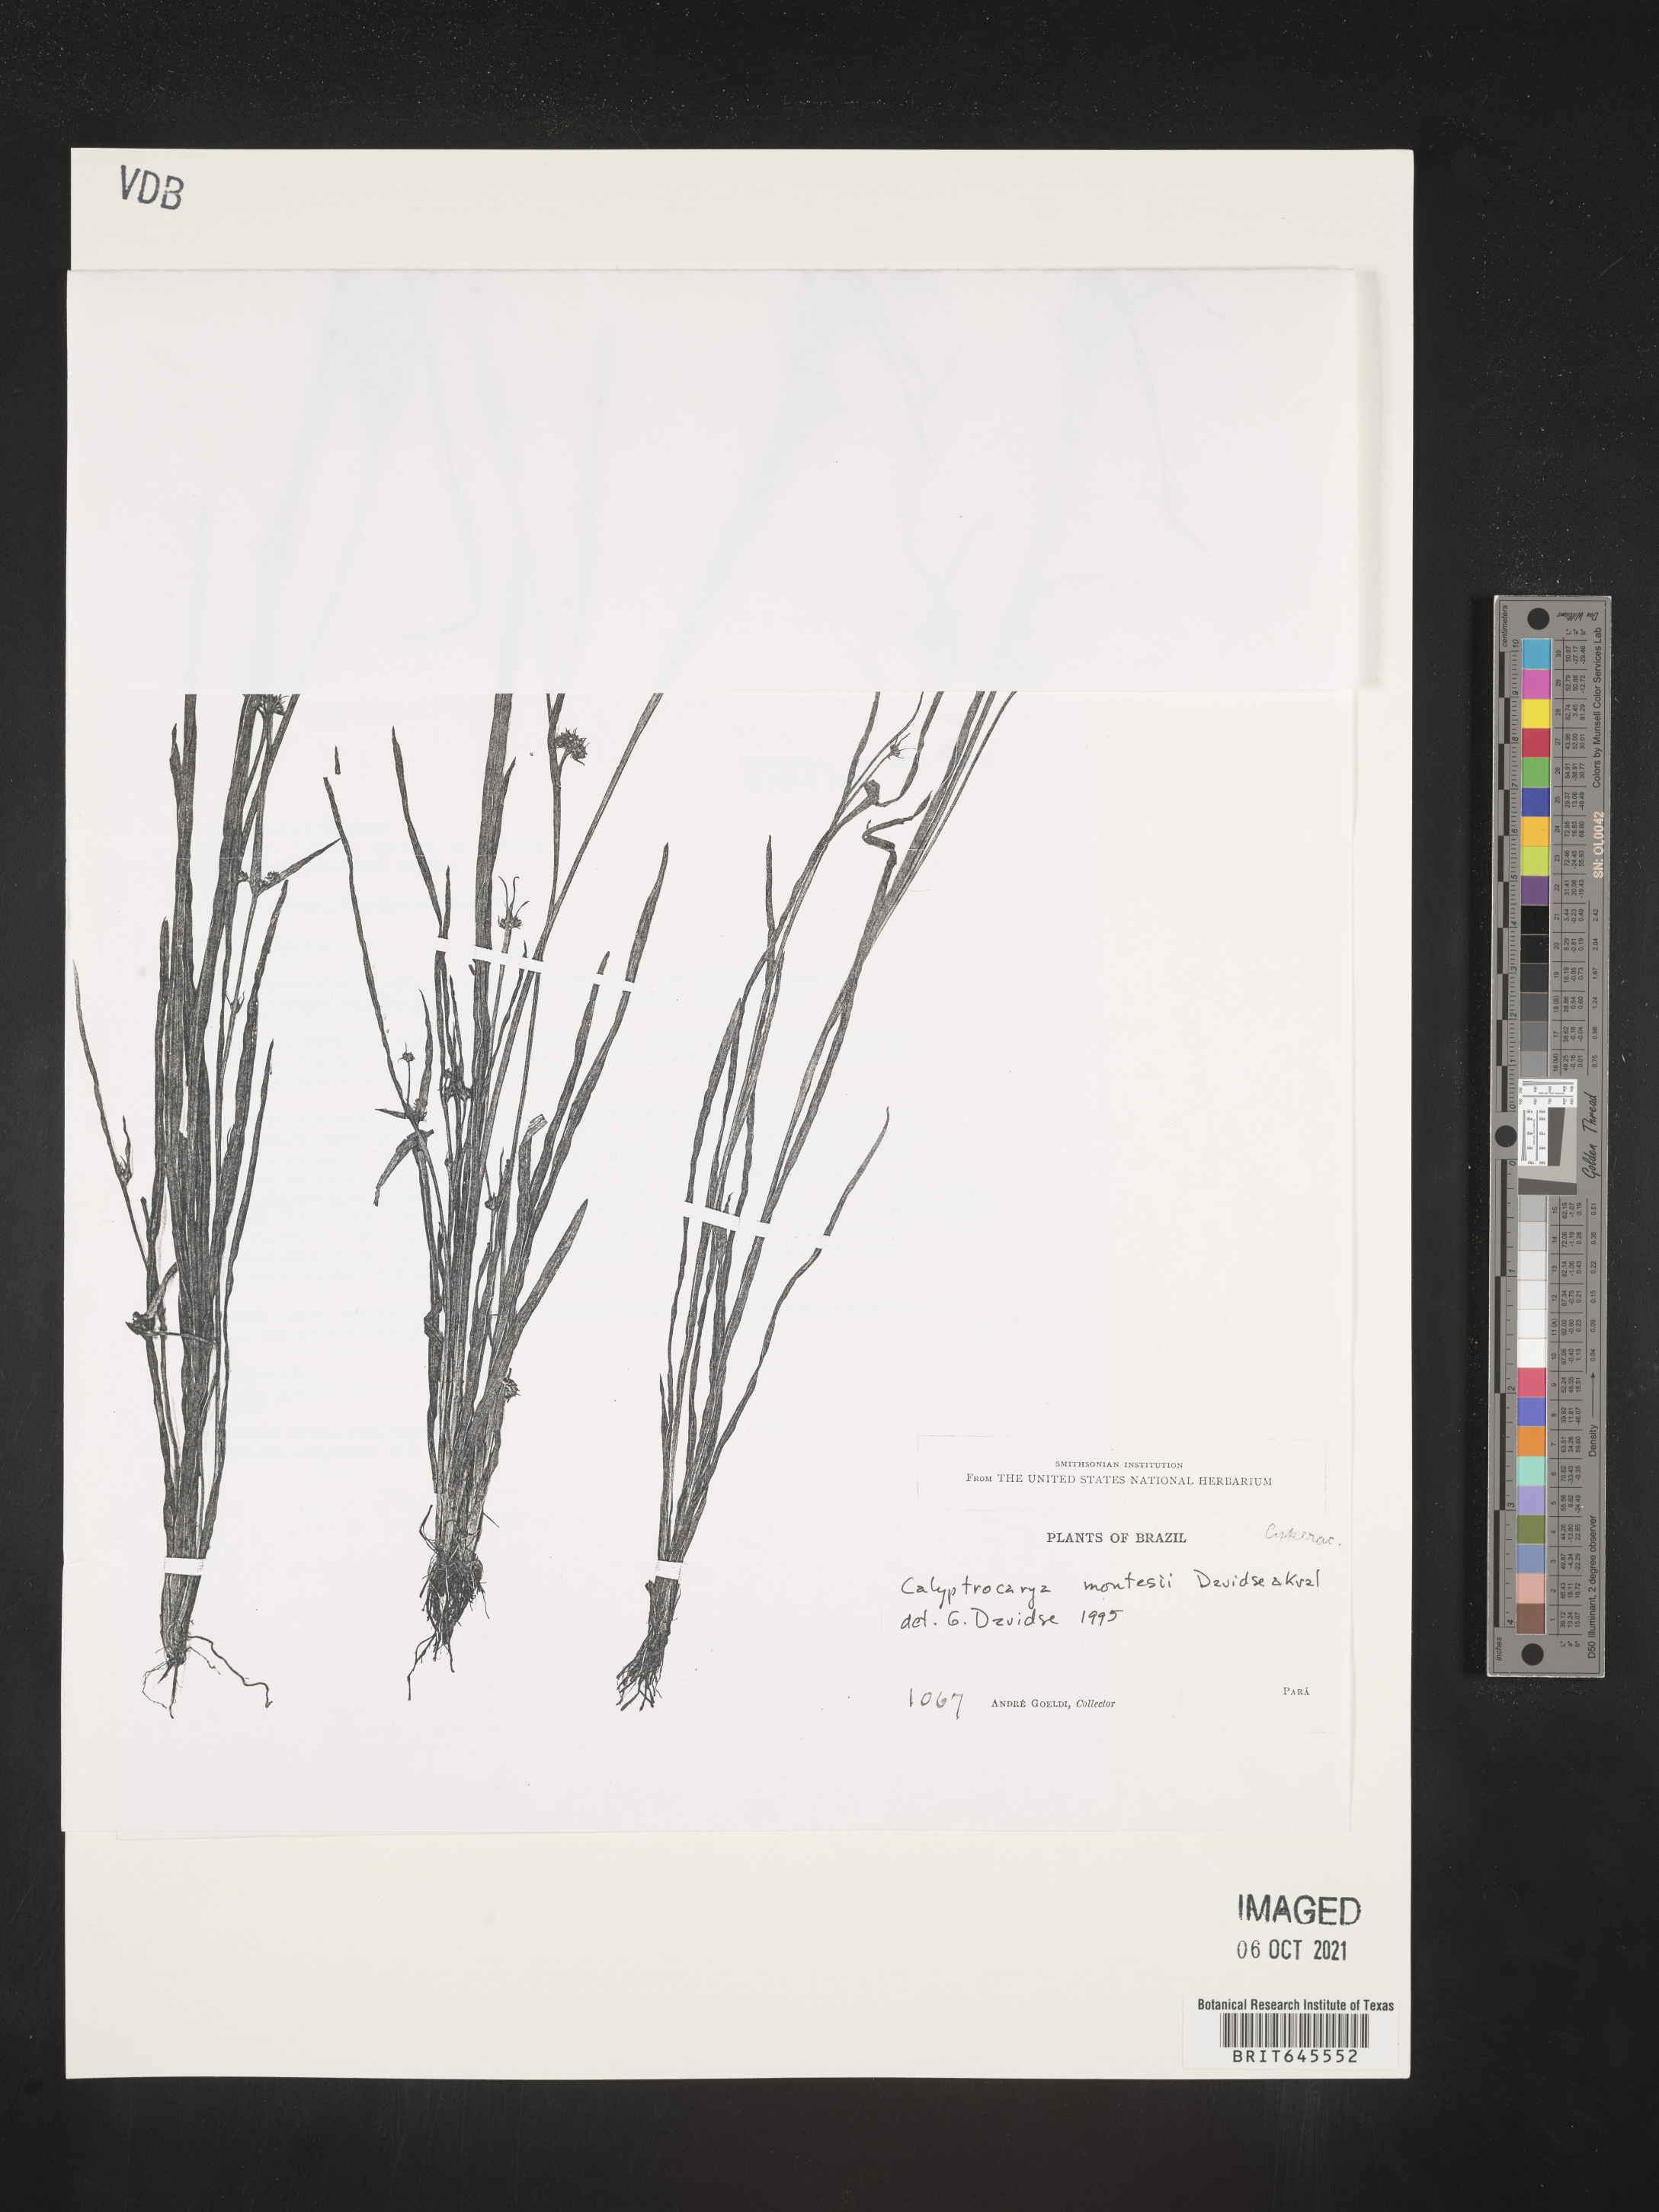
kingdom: Plantae
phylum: Tracheophyta
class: Liliopsida
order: Poales
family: Cyperaceae
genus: Calyptrocarya
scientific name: Calyptrocarya montesii
